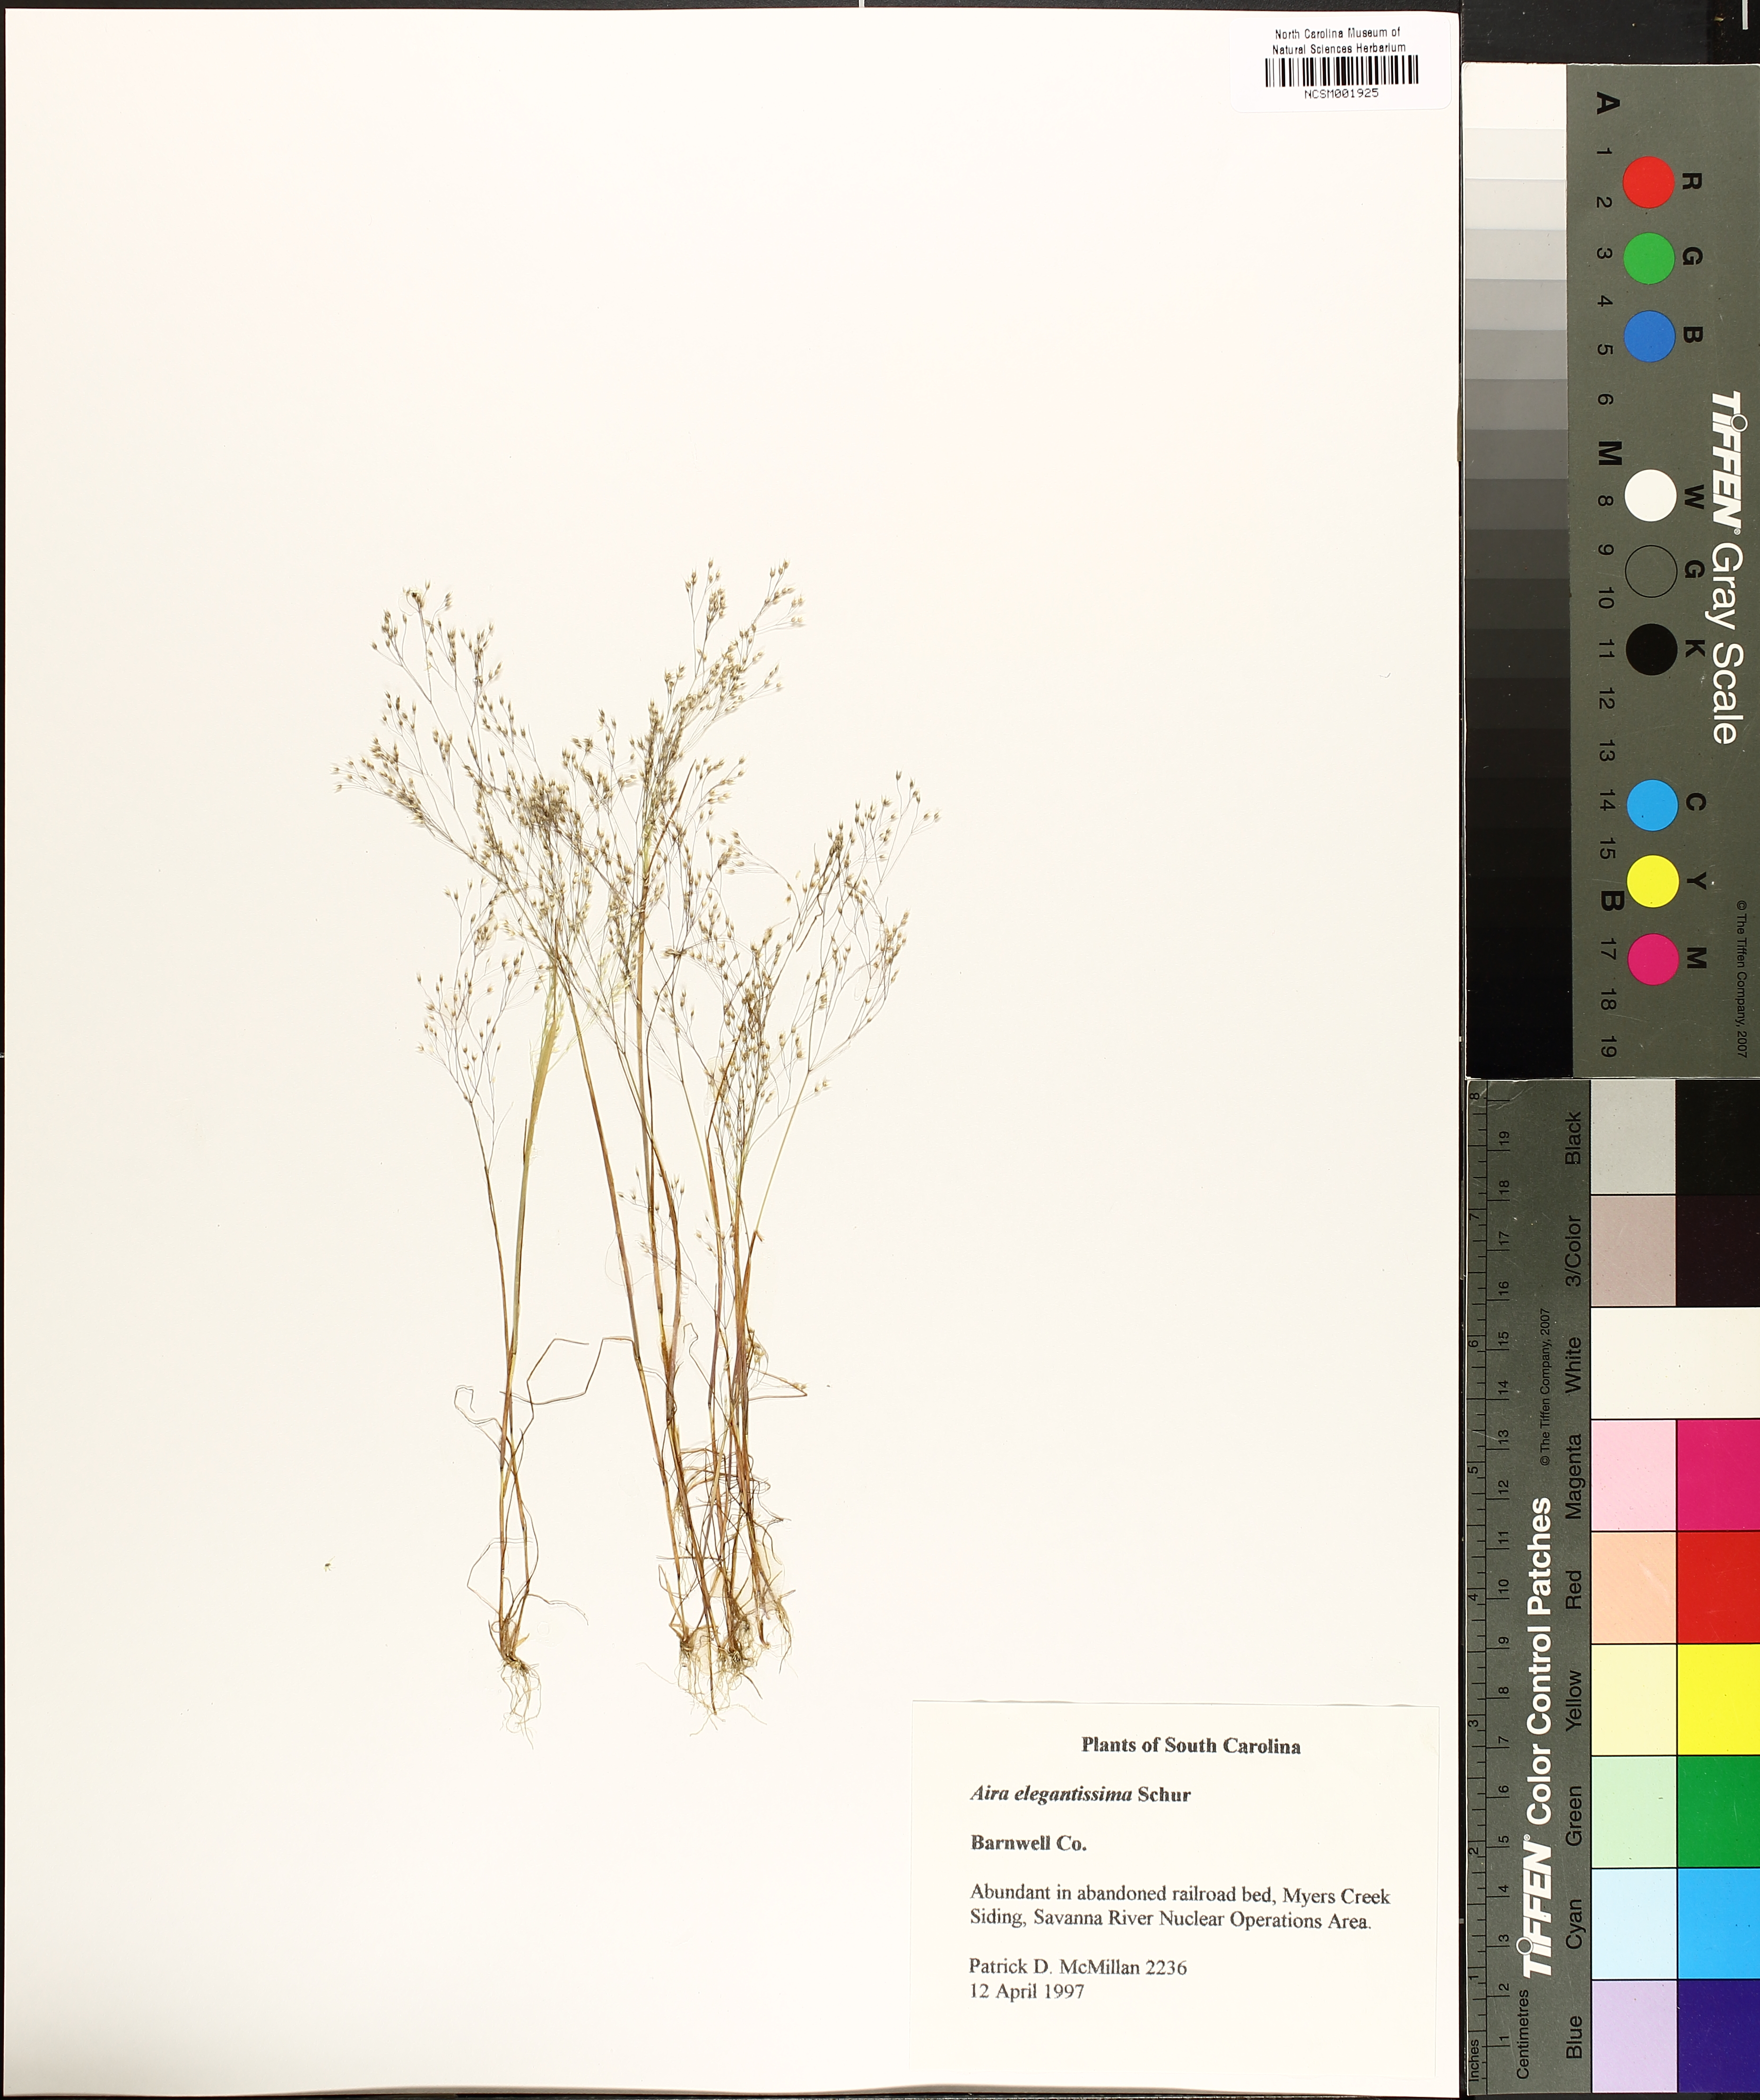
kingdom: Plantae
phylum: Tracheophyta
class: Liliopsida
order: Poales
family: Poaceae
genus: Aira
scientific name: Aira elegans
